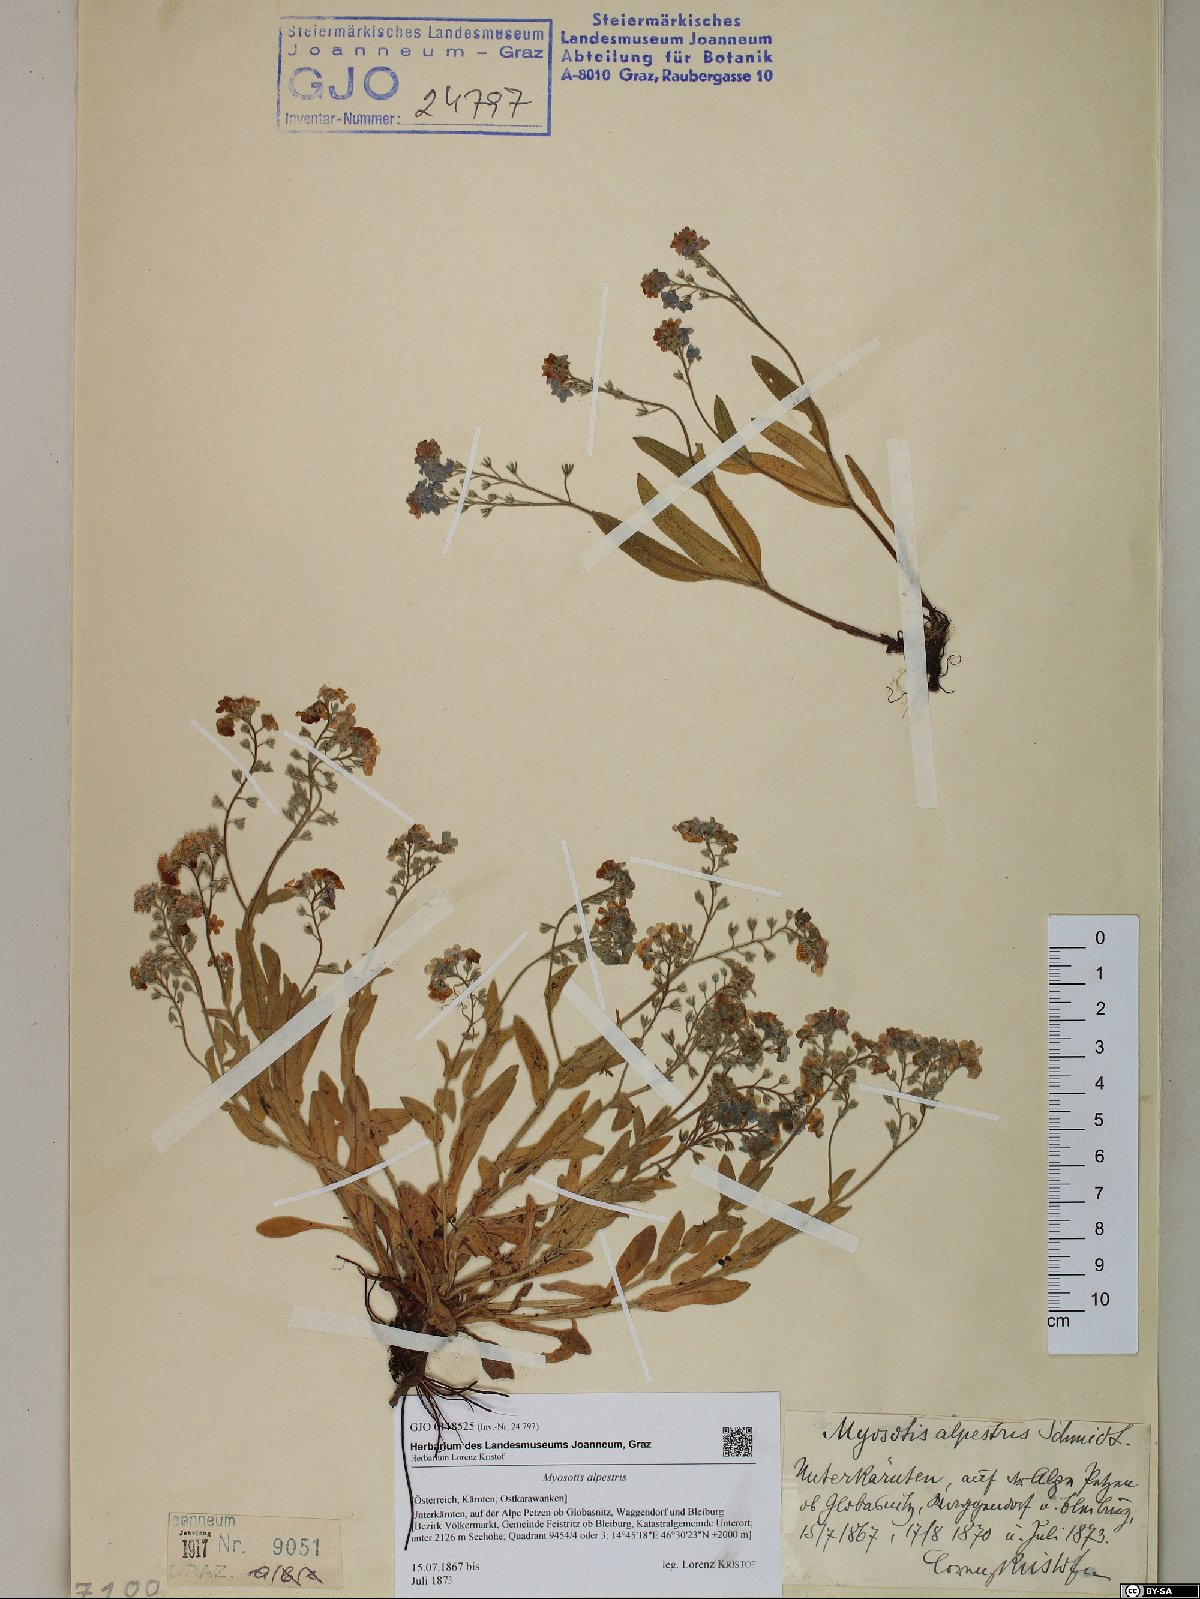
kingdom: Plantae
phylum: Tracheophyta
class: Magnoliopsida
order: Boraginales
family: Boraginaceae
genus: Myosotis
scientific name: Myosotis alpestris
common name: Alpine forget-me-not
